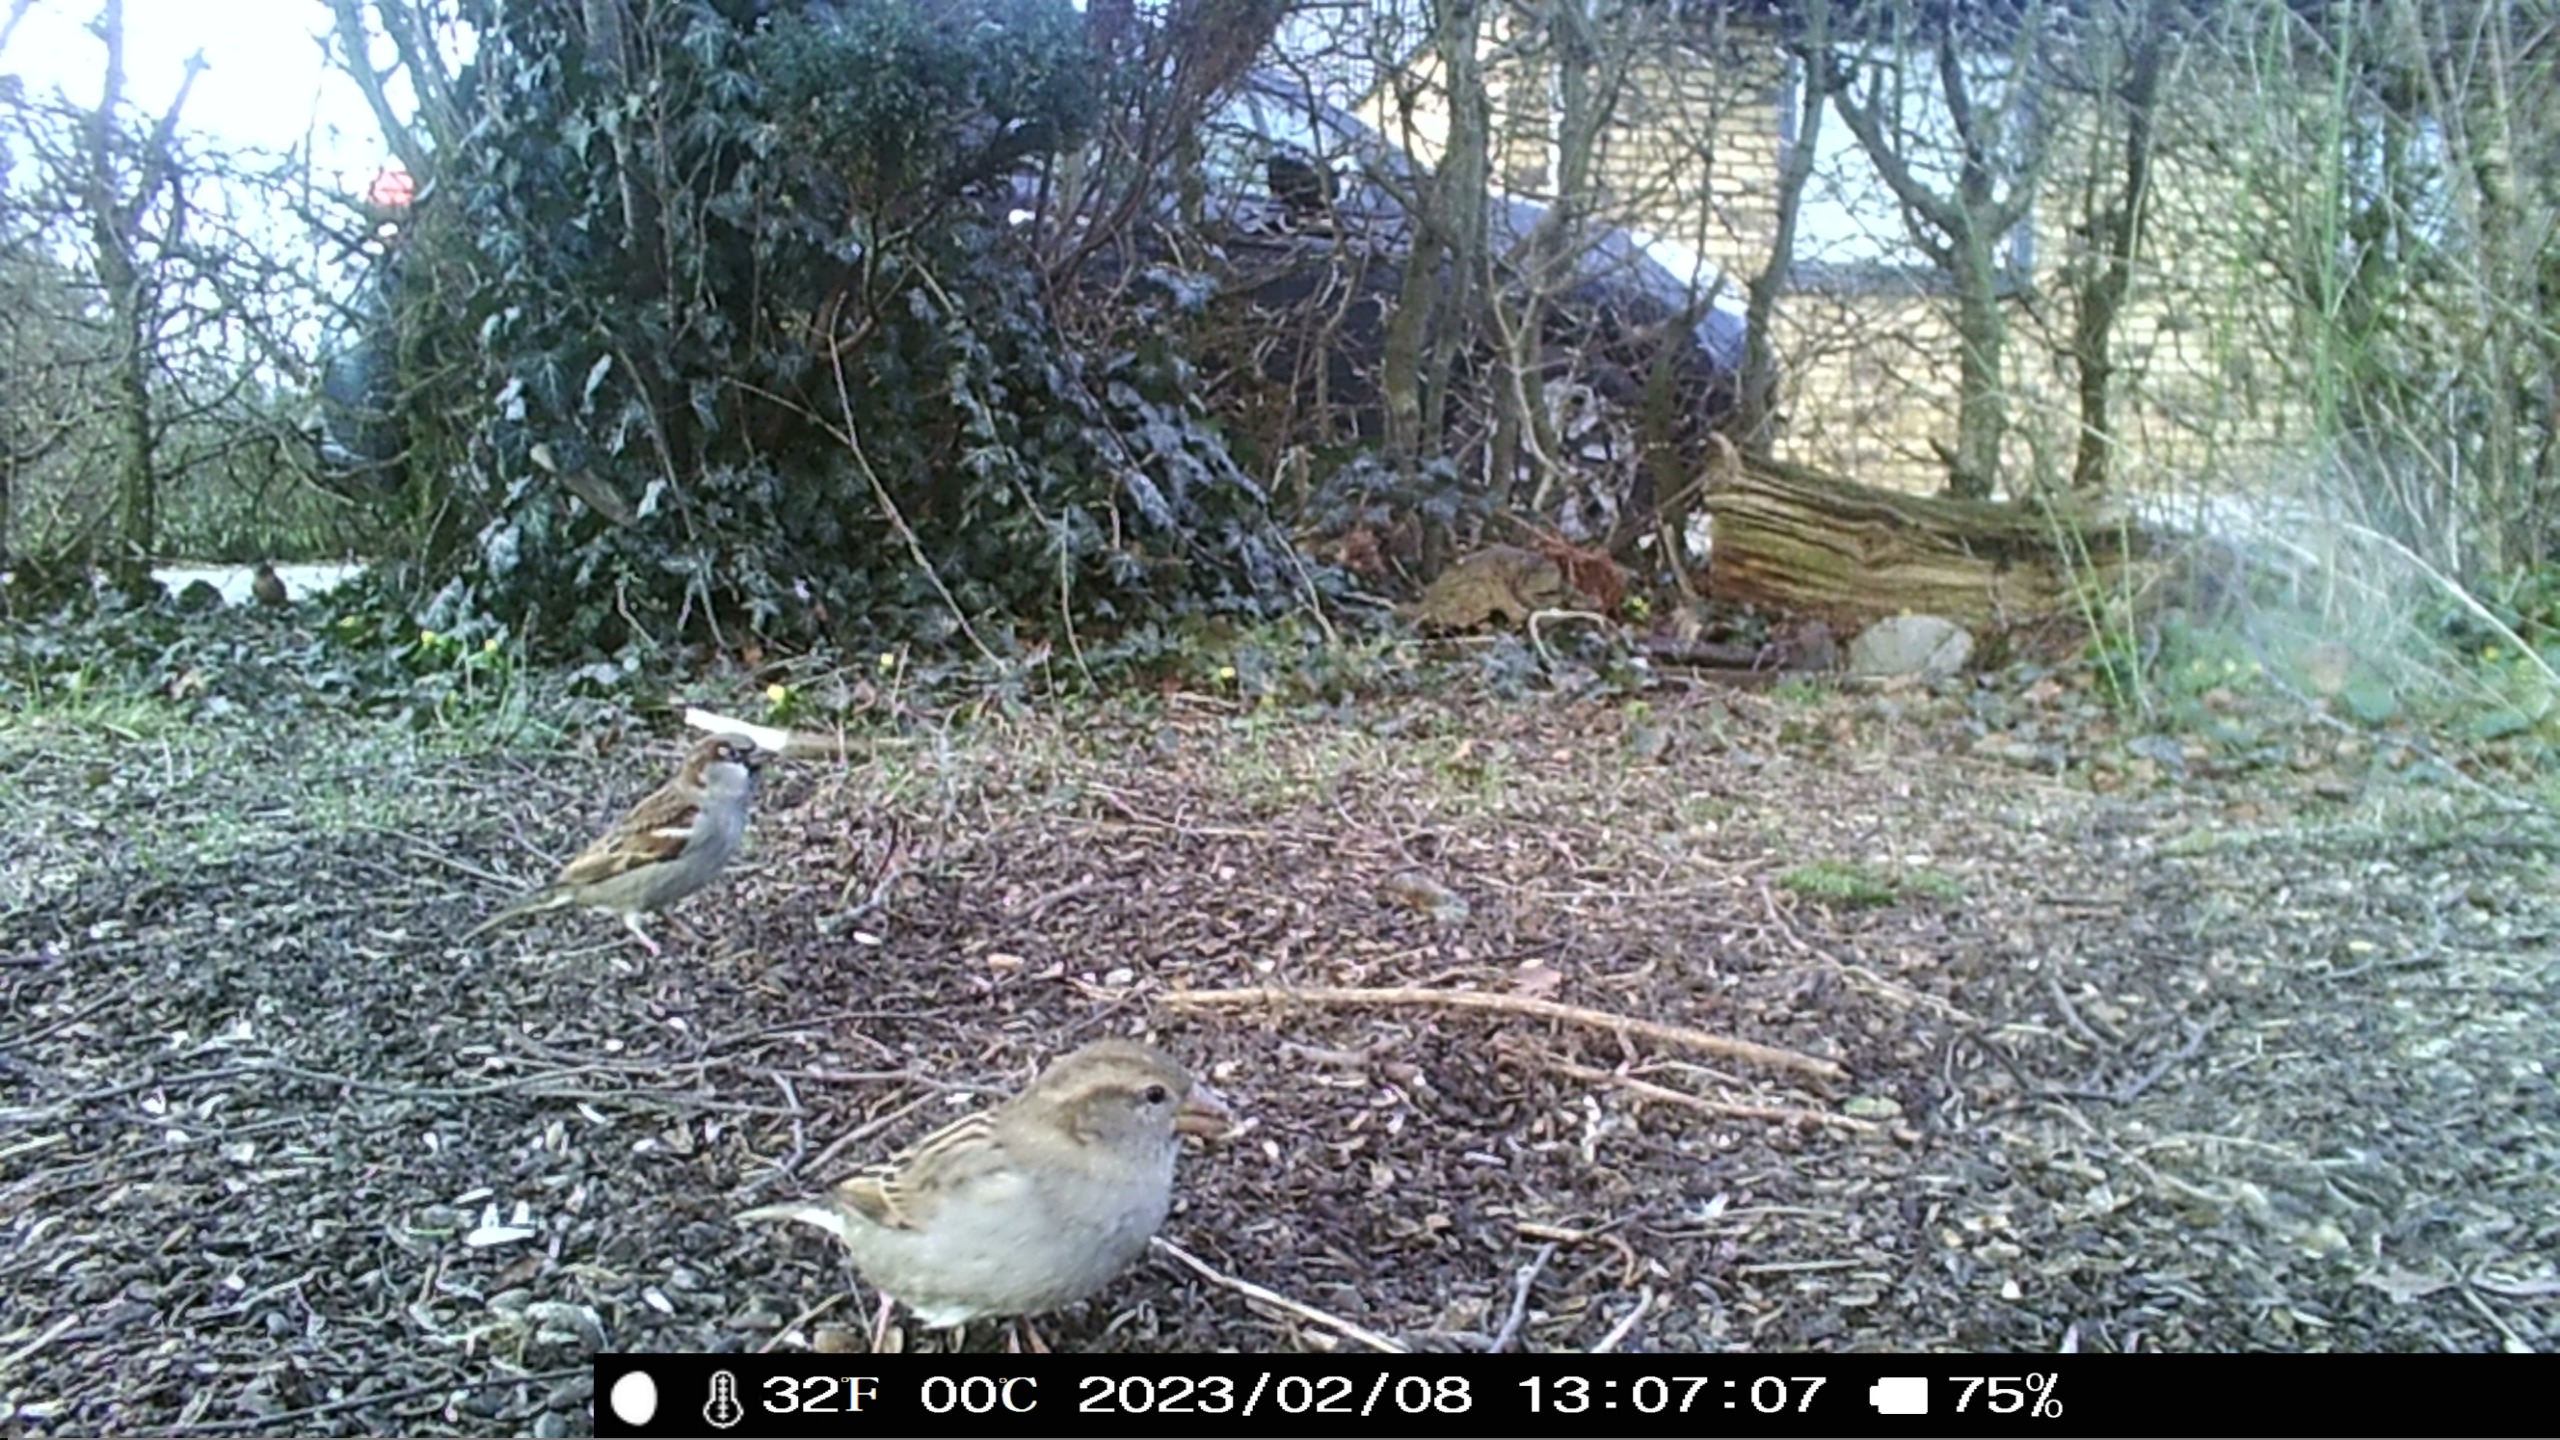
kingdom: Animalia
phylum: Chordata
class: Aves
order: Passeriformes
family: Passeridae
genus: Passer
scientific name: Passer domesticus
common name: Gråspurv
